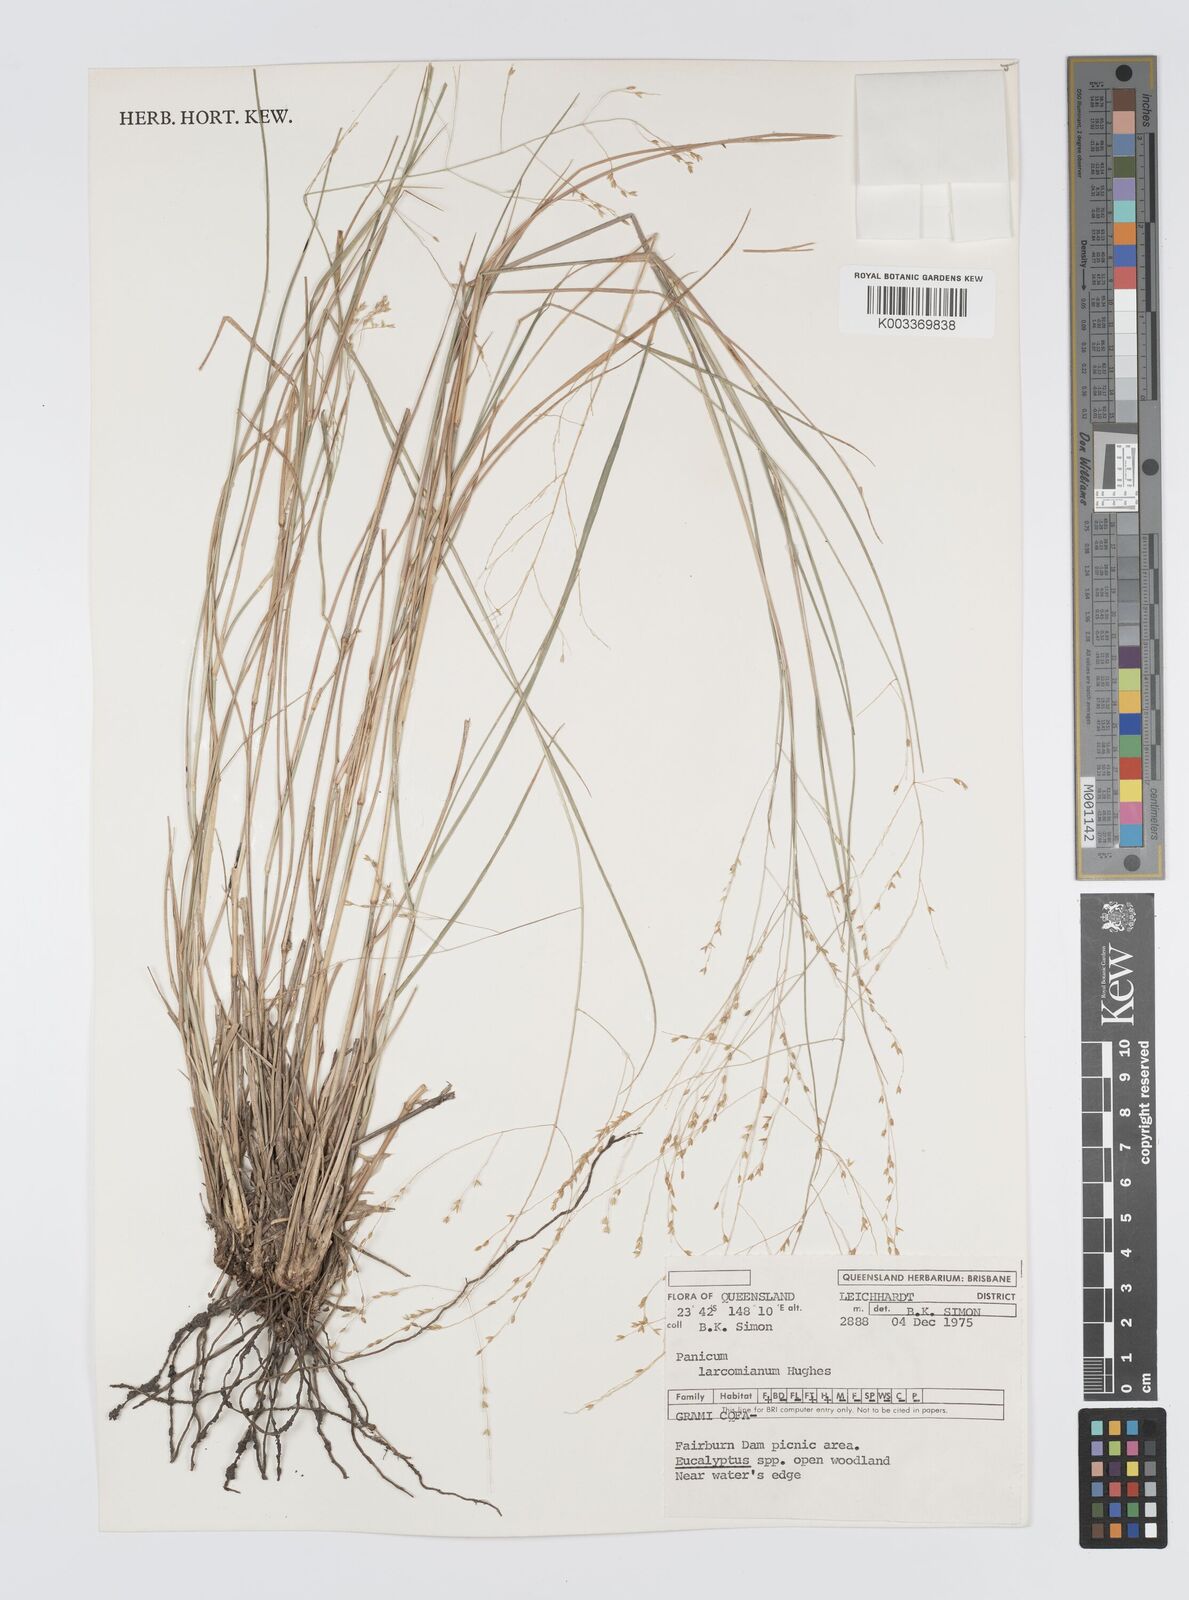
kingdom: Plantae
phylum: Tracheophyta
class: Liliopsida
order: Poales
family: Poaceae
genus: Panicum
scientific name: Panicum larcomianum
